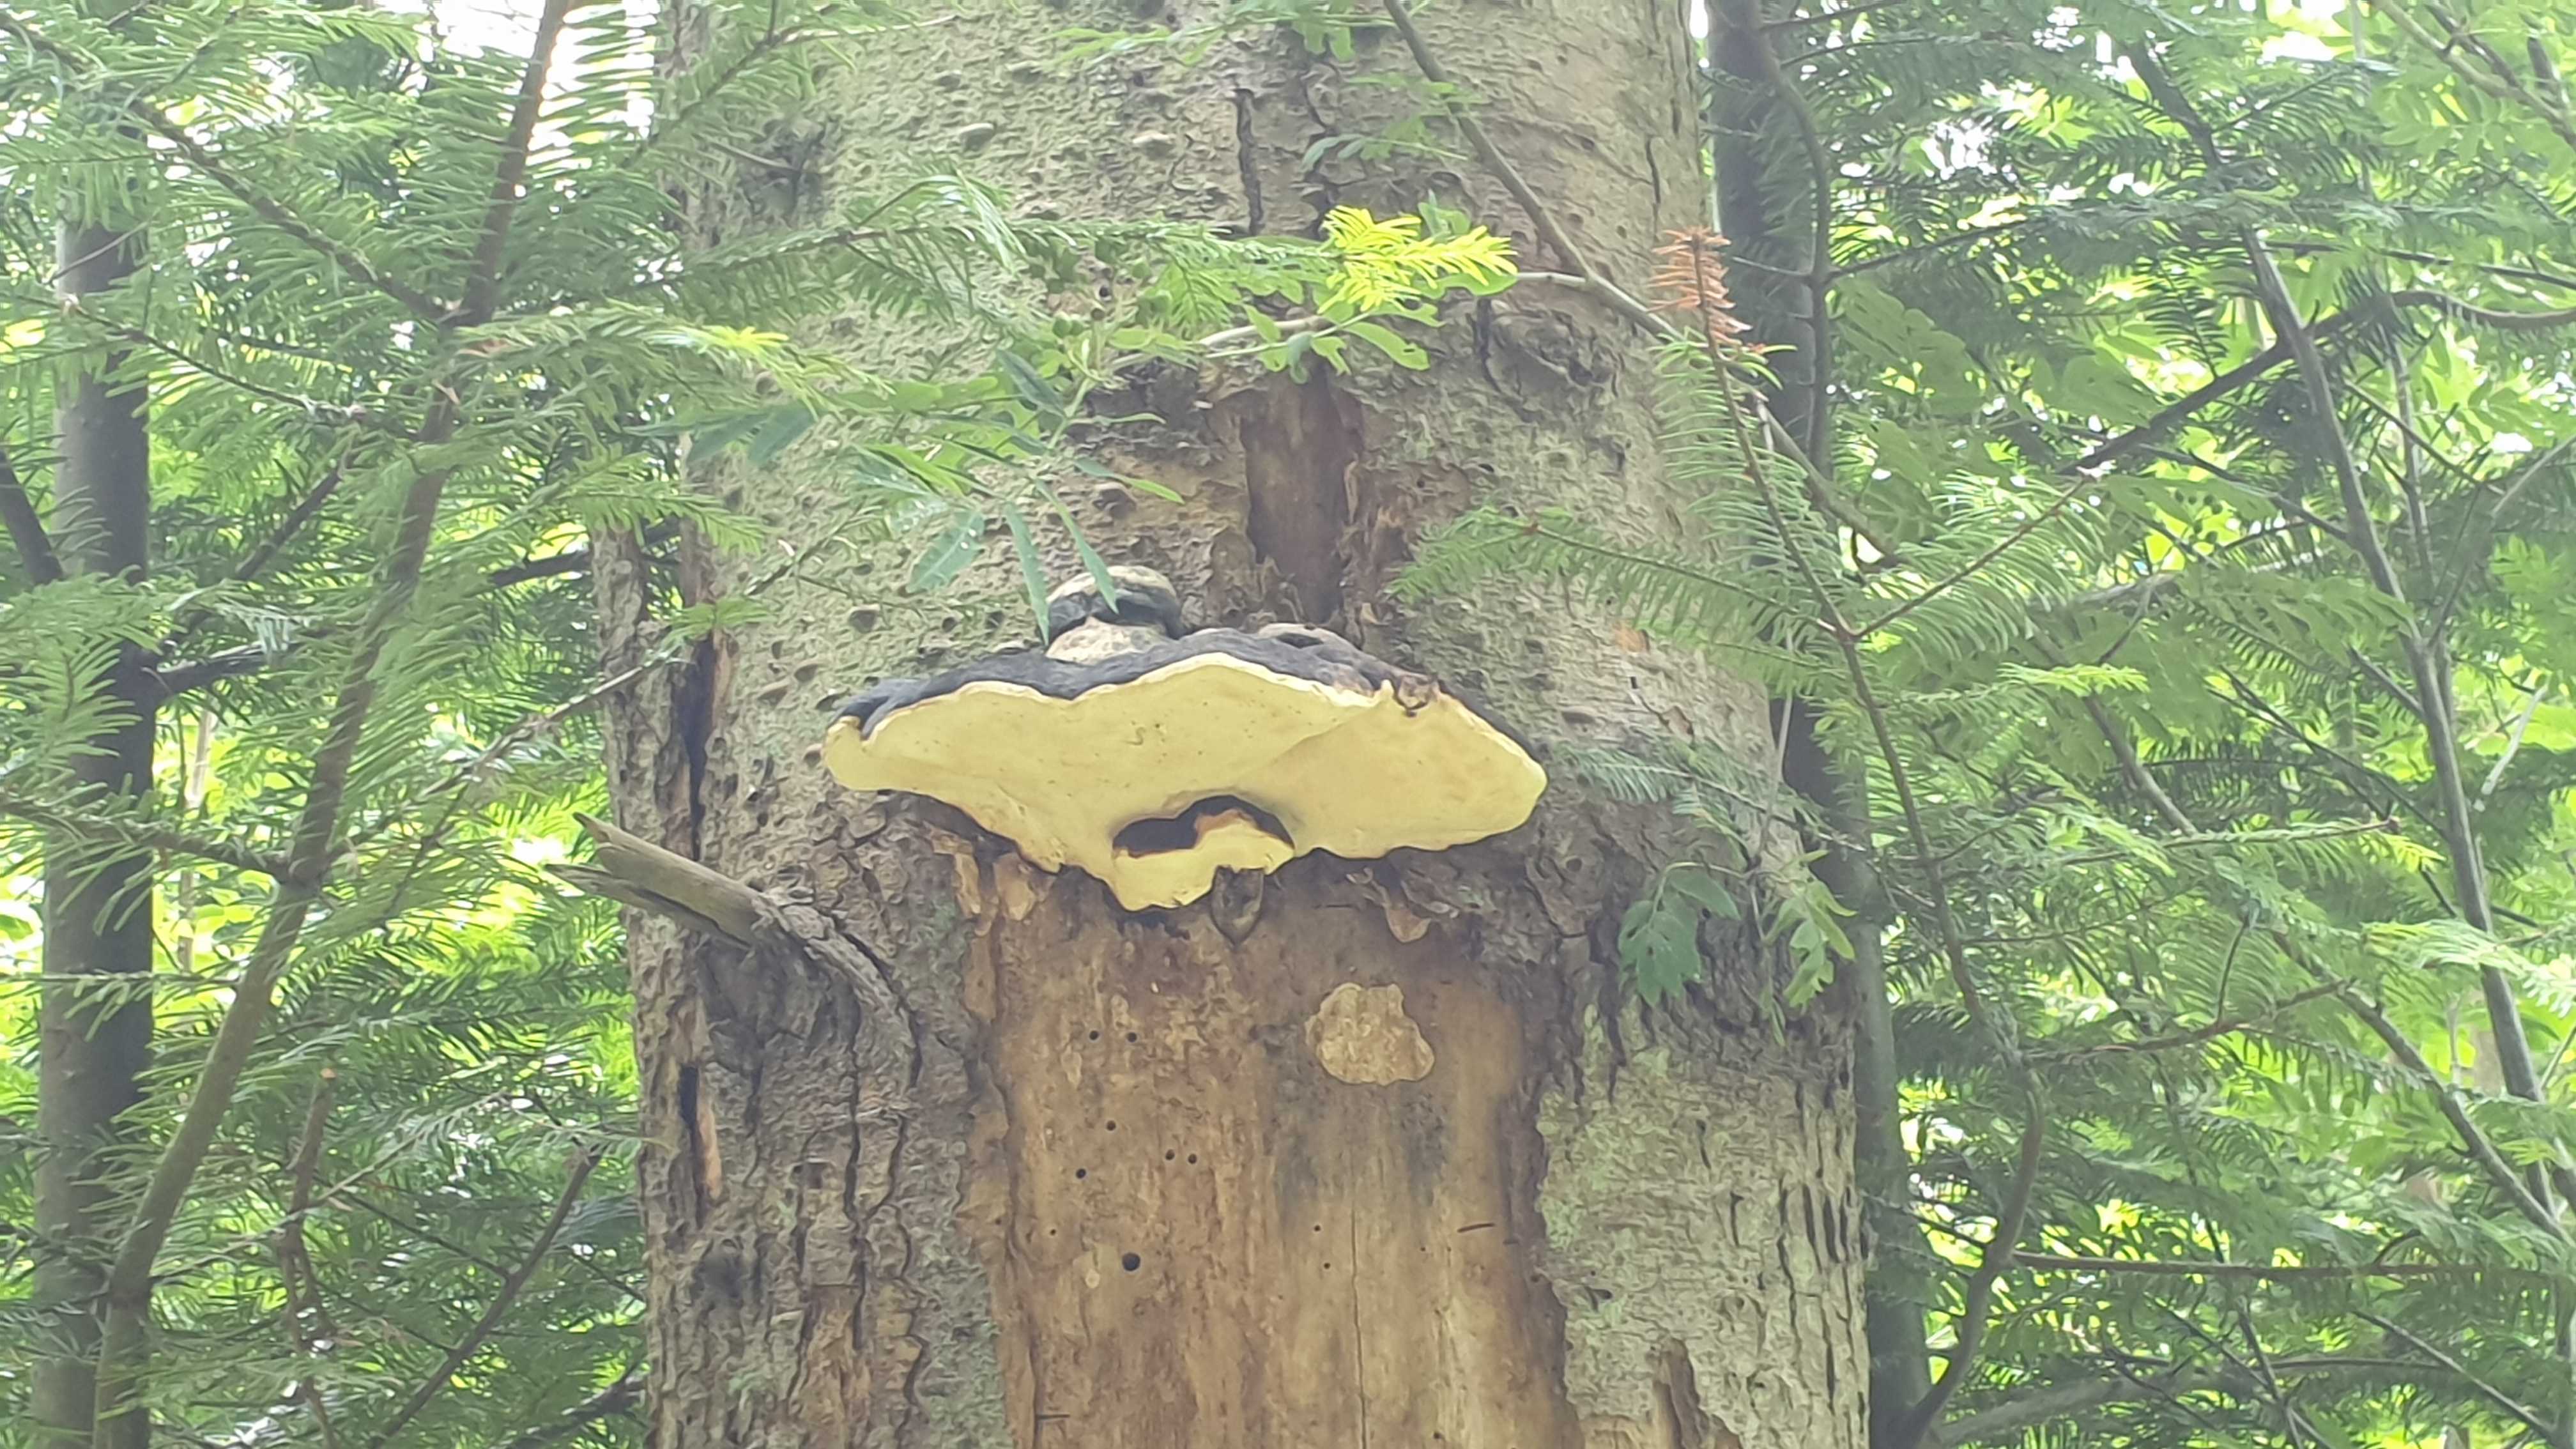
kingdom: Fungi
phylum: Basidiomycota
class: Agaricomycetes
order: Polyporales
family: Fomitopsidaceae
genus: Fomitopsis
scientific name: Fomitopsis pinicola
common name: randbæltet hovporesvamp
